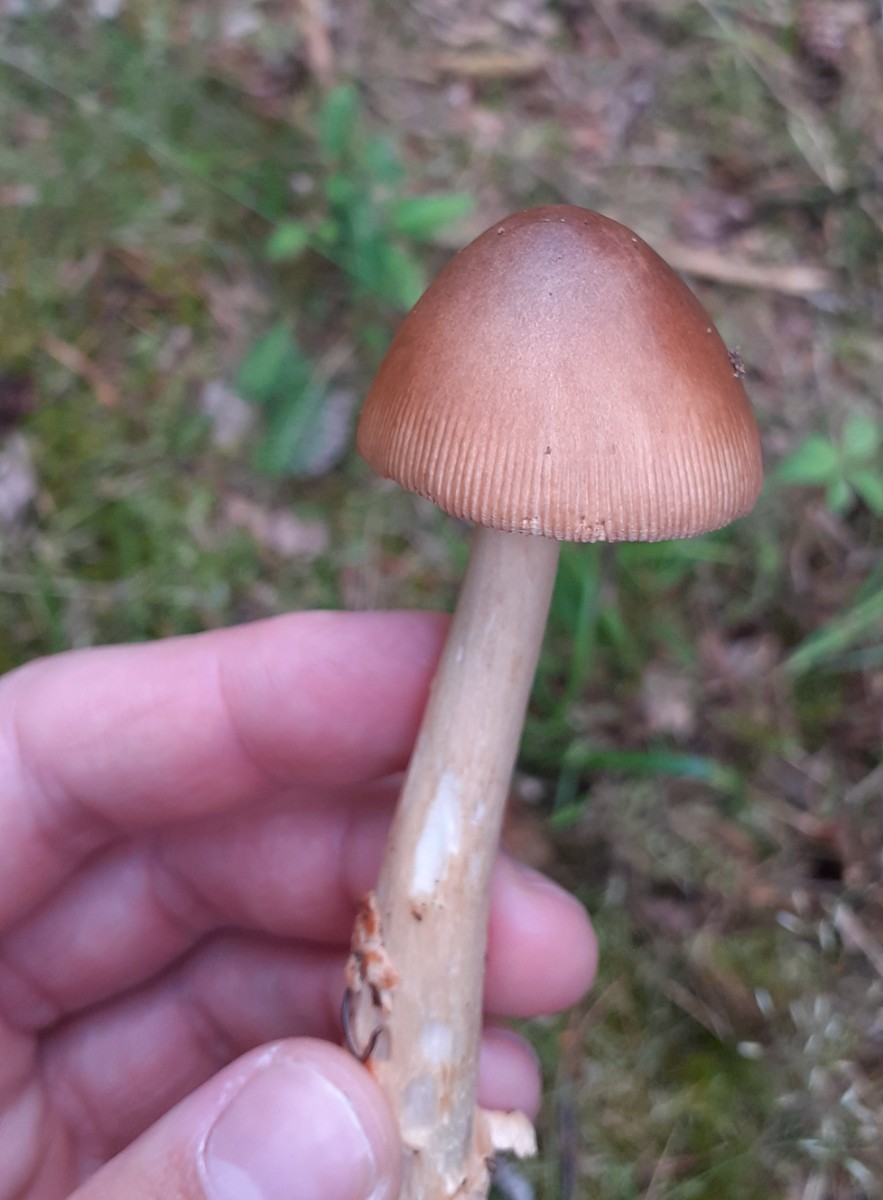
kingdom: Fungi
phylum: Basidiomycota
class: Agaricomycetes
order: Agaricales
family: Amanitaceae
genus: Amanita
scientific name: Amanita fulva
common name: brun kam-fluesvamp
